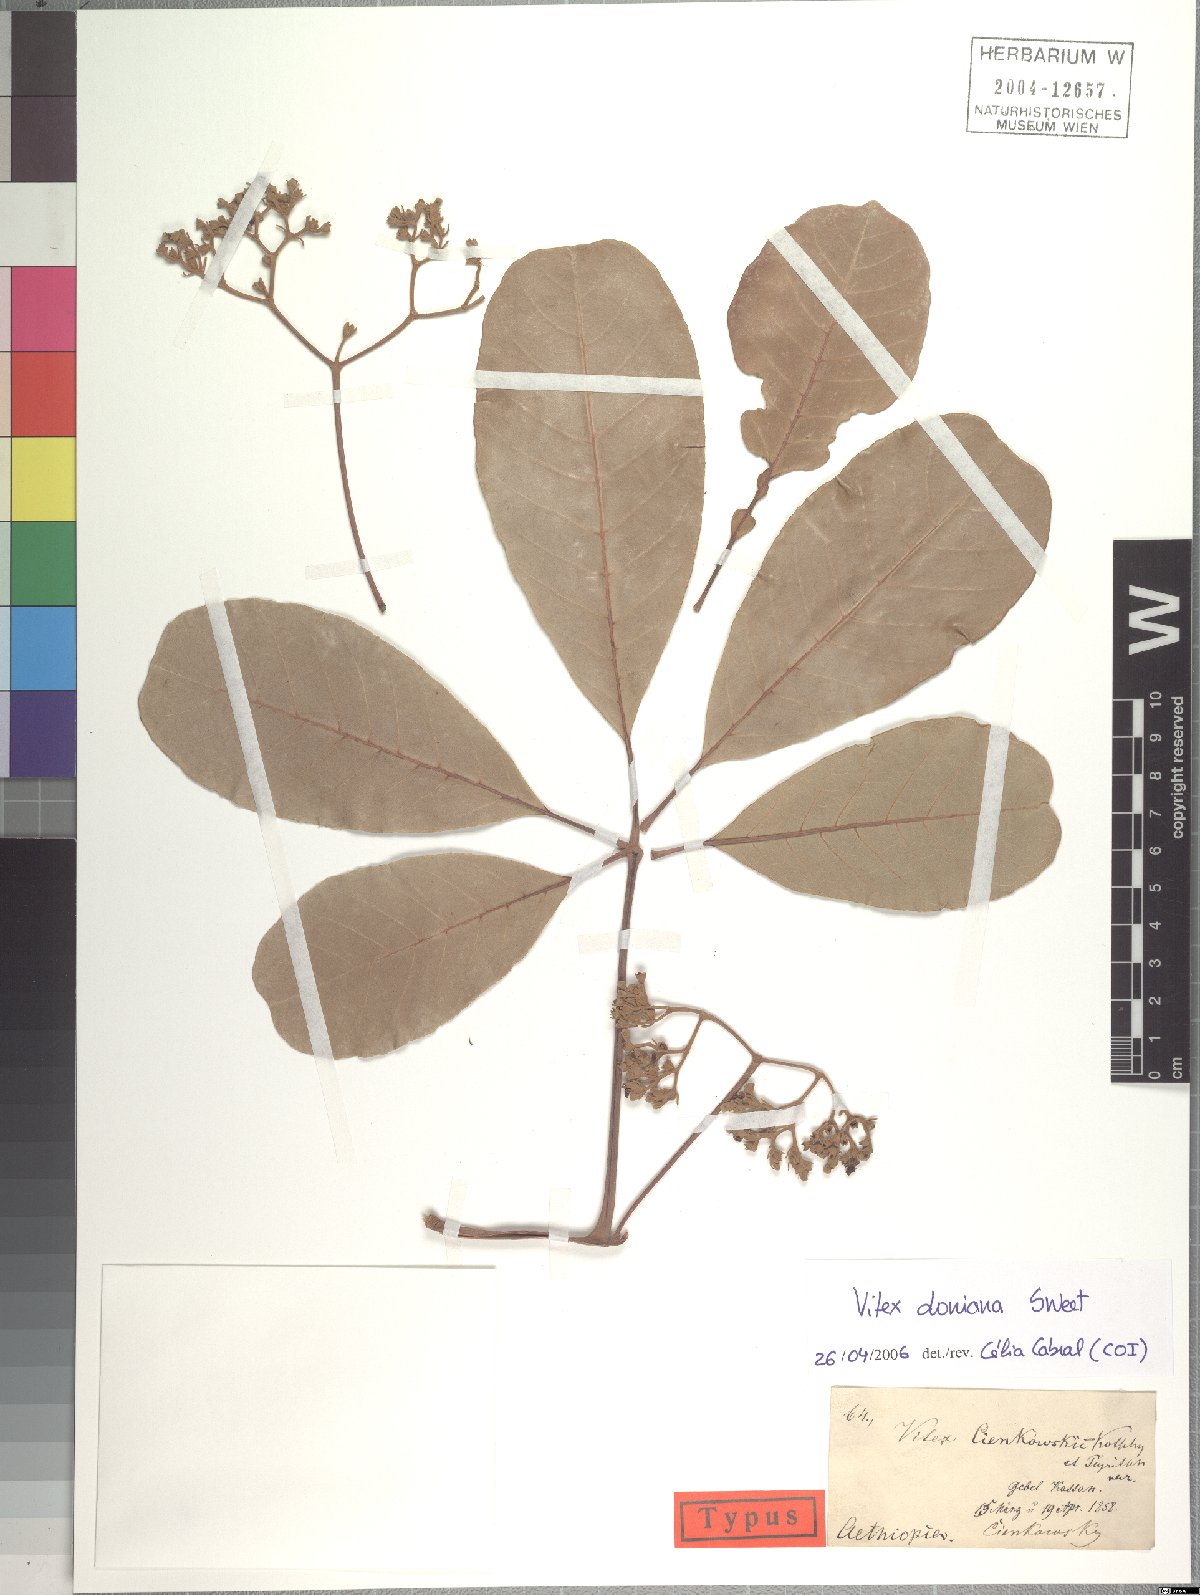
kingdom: Plantae
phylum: Tracheophyta
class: Magnoliopsida
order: Lamiales
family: Lamiaceae
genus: Vitex
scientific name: Vitex doniana
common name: Black plum
